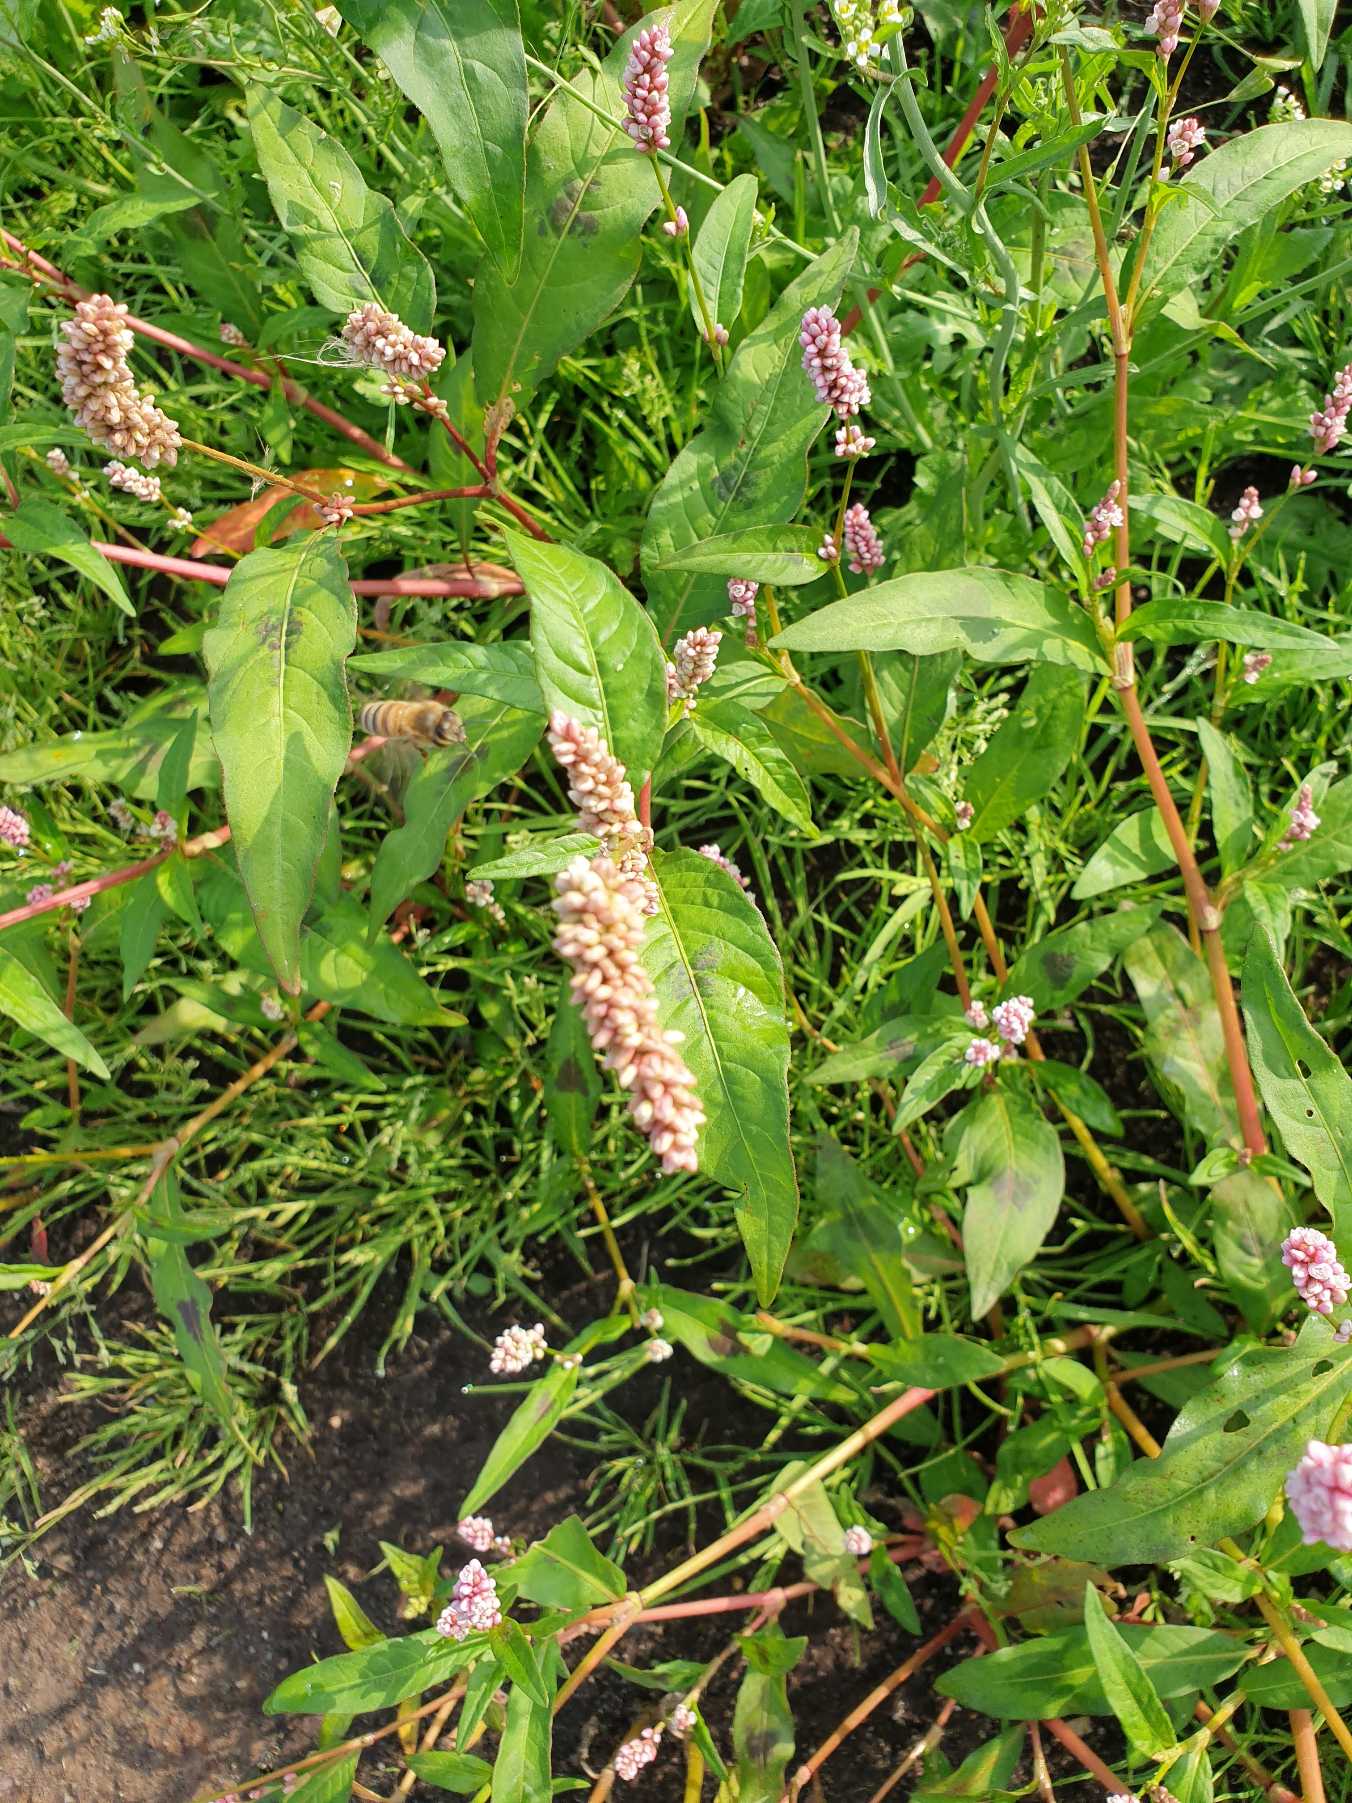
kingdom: Plantae
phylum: Tracheophyta
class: Magnoliopsida
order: Caryophyllales
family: Polygonaceae
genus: Persicaria
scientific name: Persicaria
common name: Pileurt (Persicaria-slægten)
